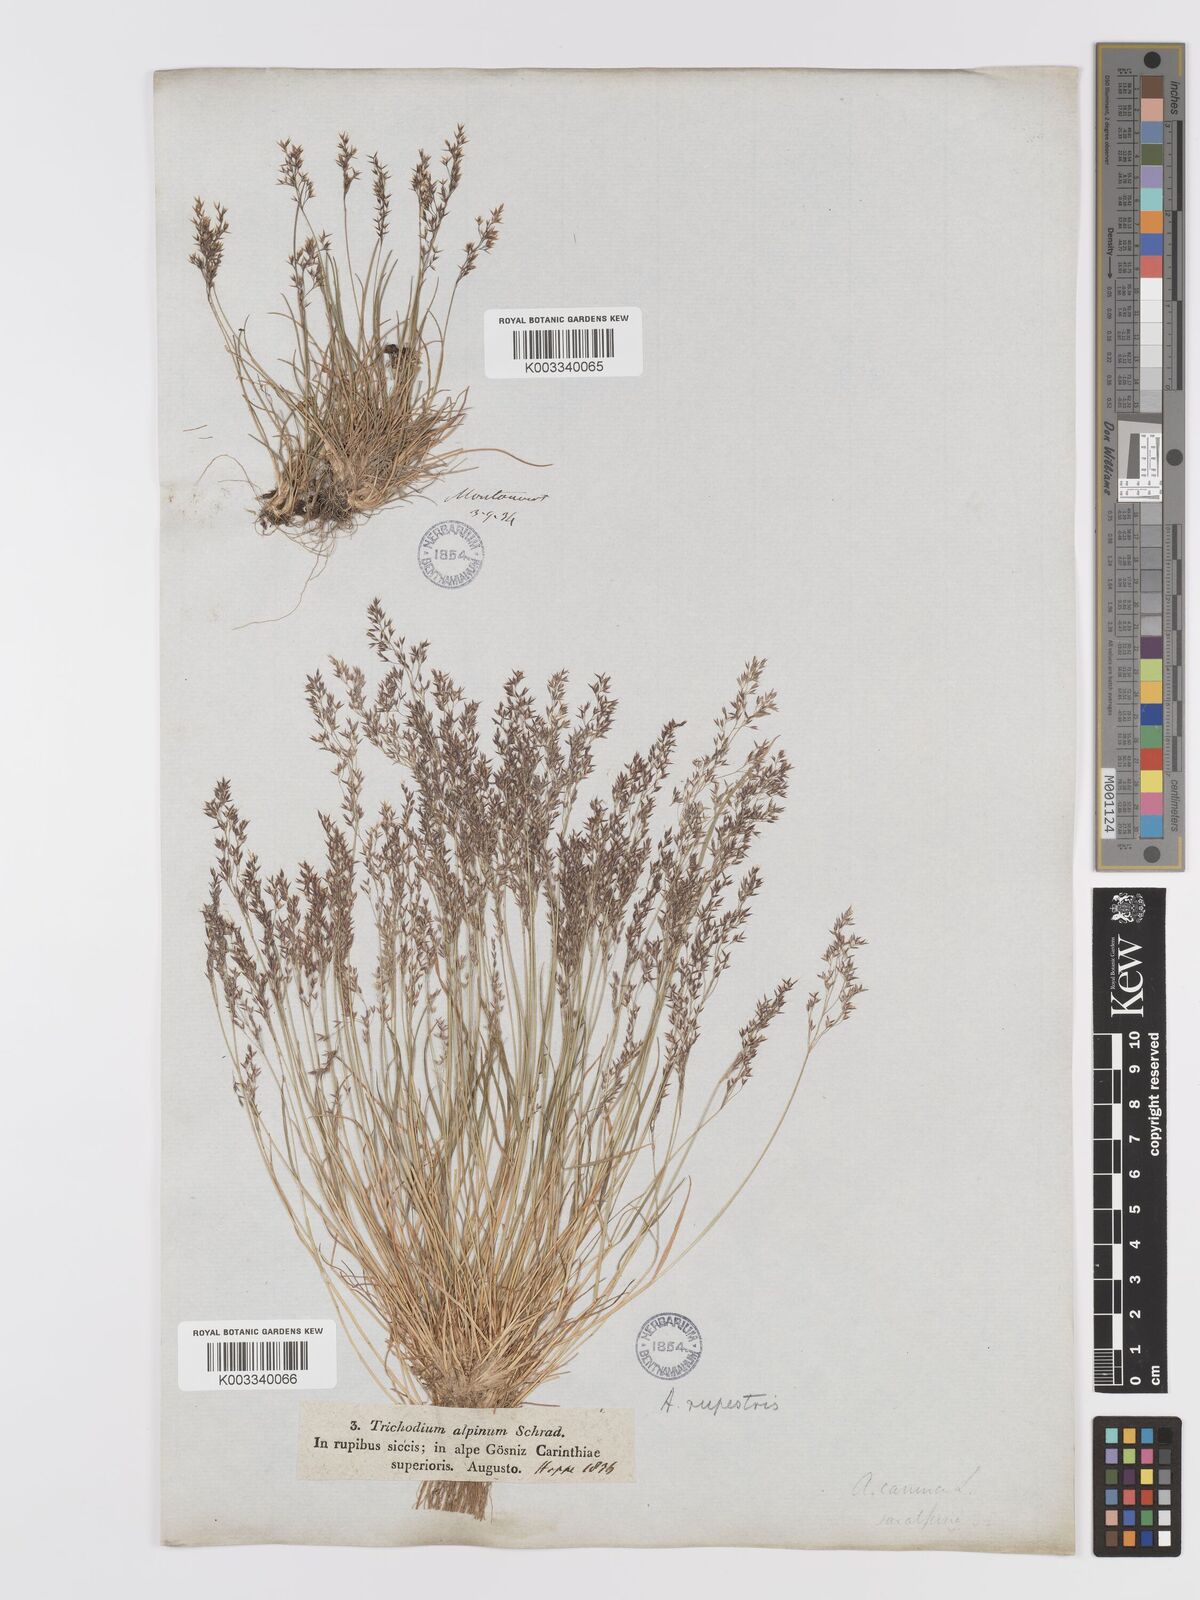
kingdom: Plantae
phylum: Tracheophyta
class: Liliopsida
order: Poales
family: Poaceae
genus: Agrostis
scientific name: Agrostis rupestris
